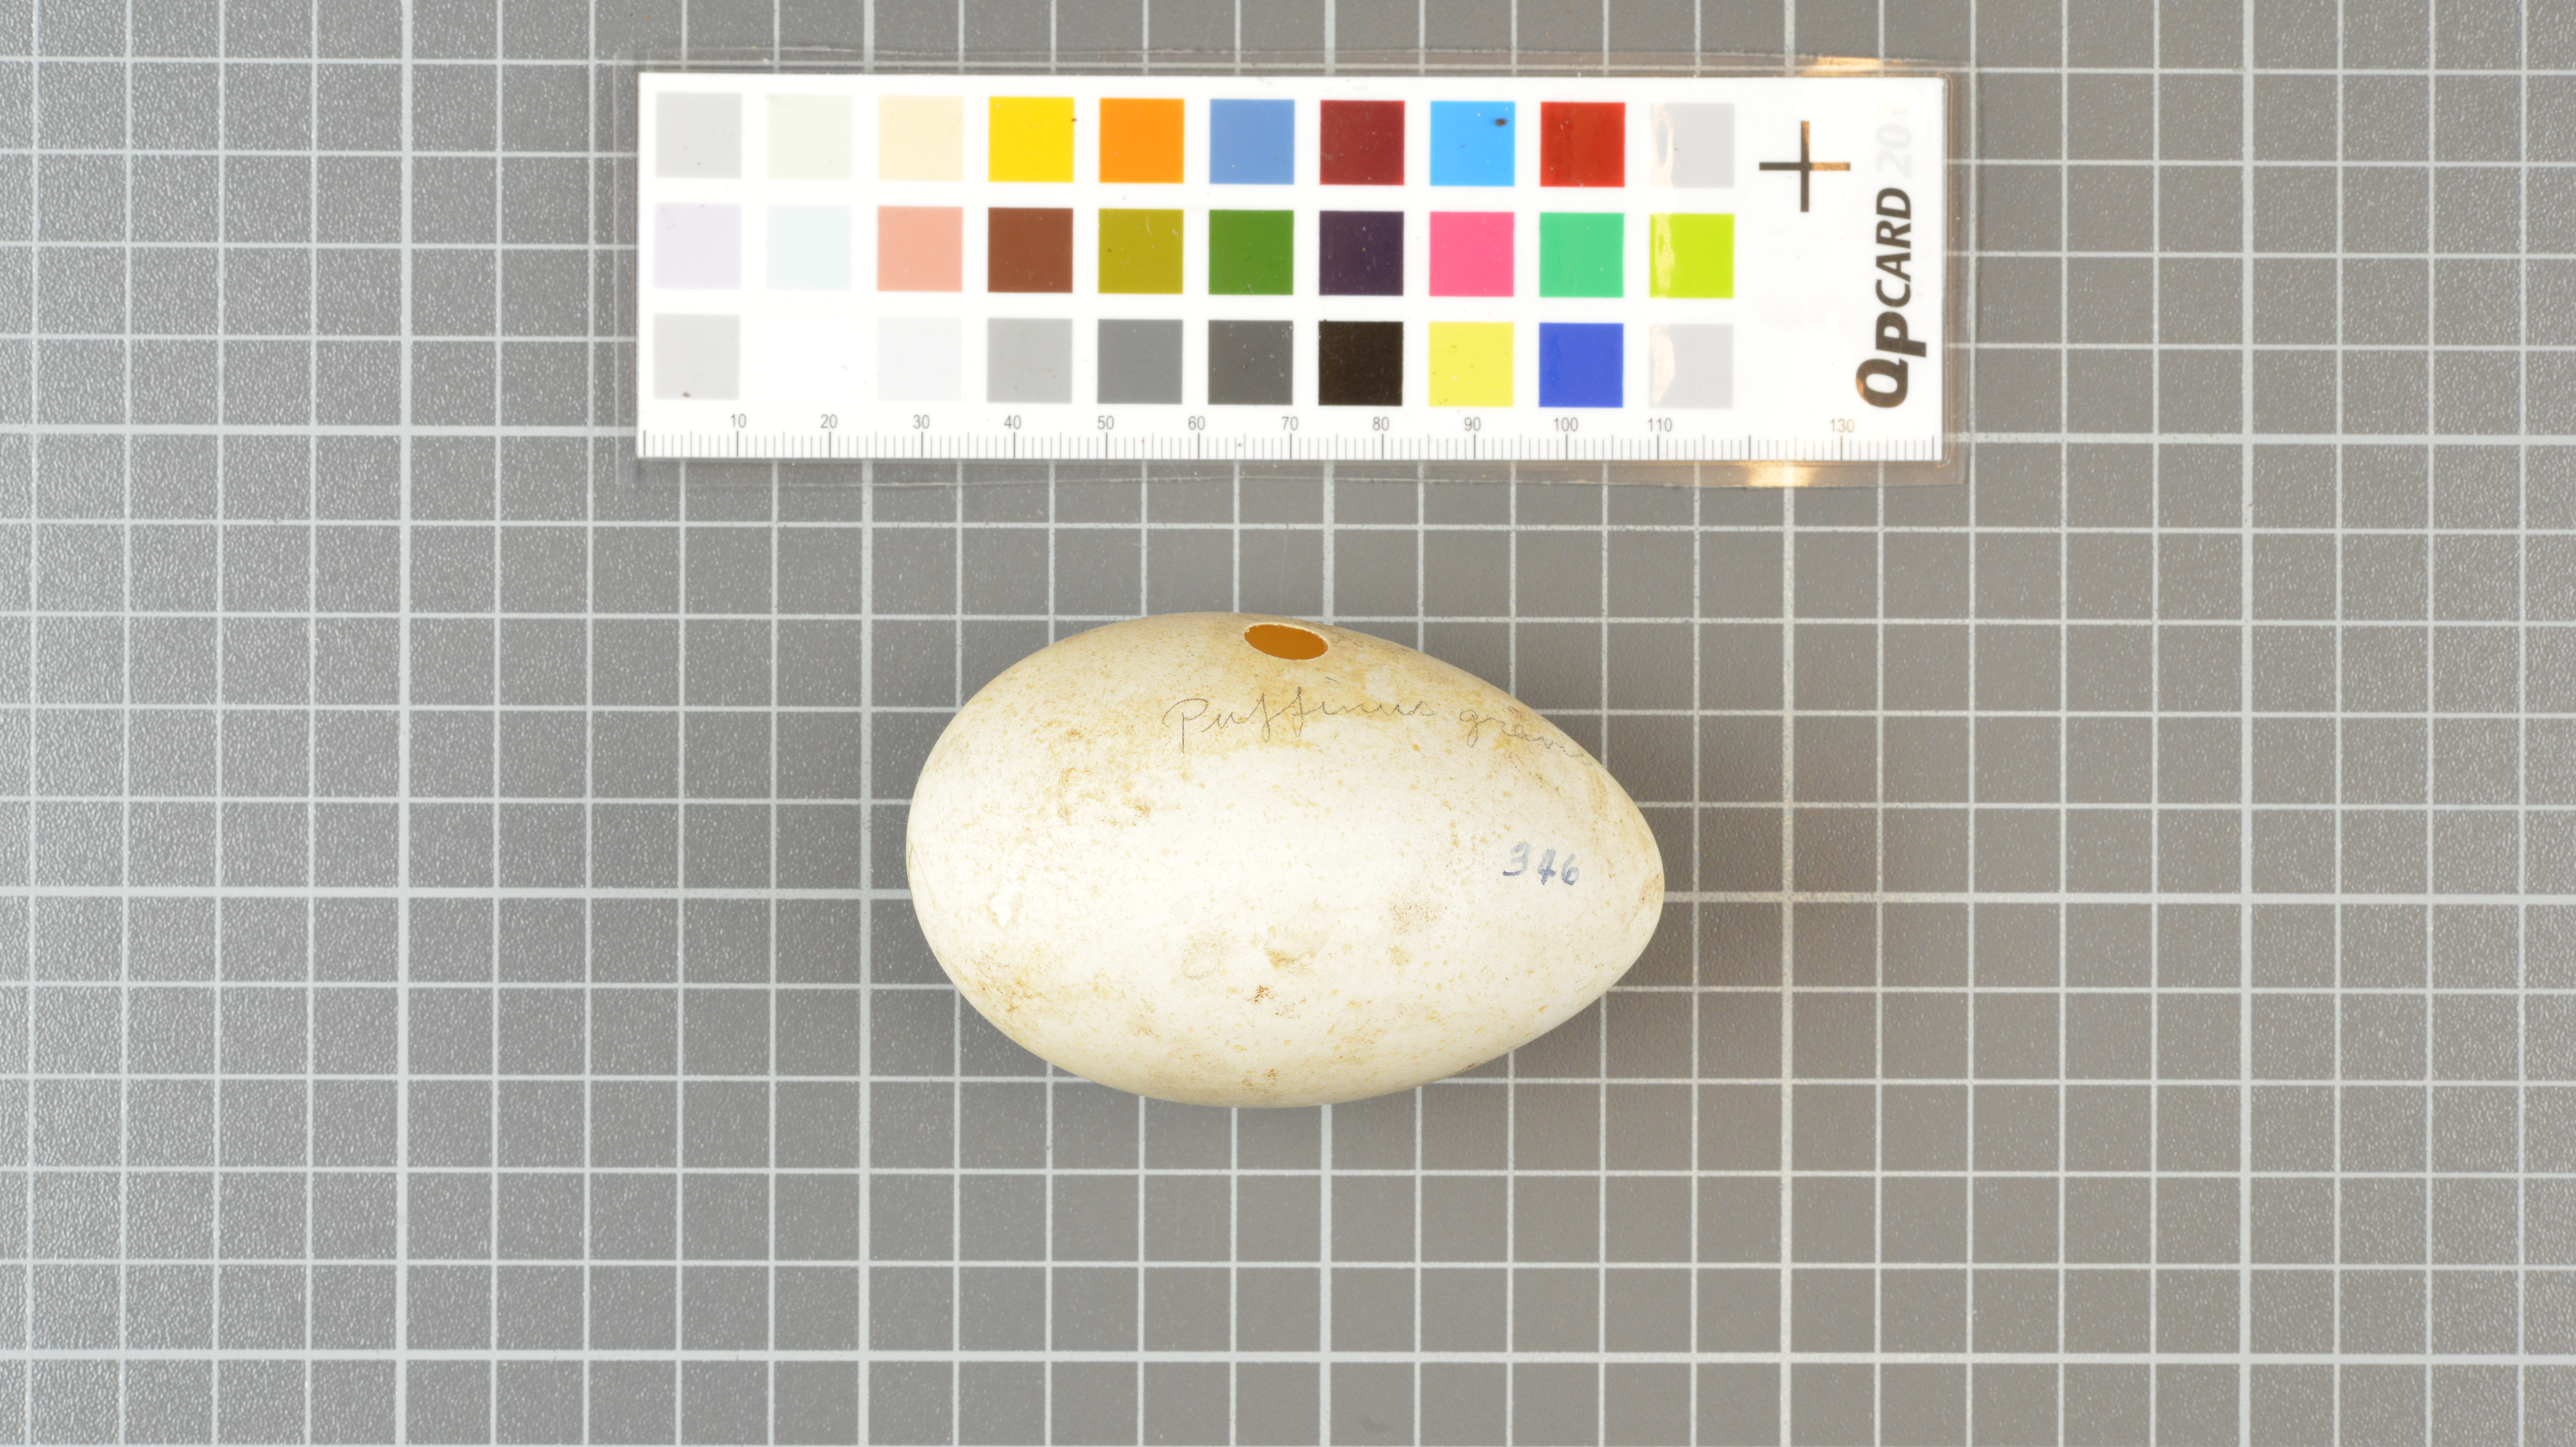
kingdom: Animalia
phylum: Chordata
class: Aves
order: Procellariiformes
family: Procellariidae
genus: Puffinus
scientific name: Puffinus gravis
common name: Great shearwater
